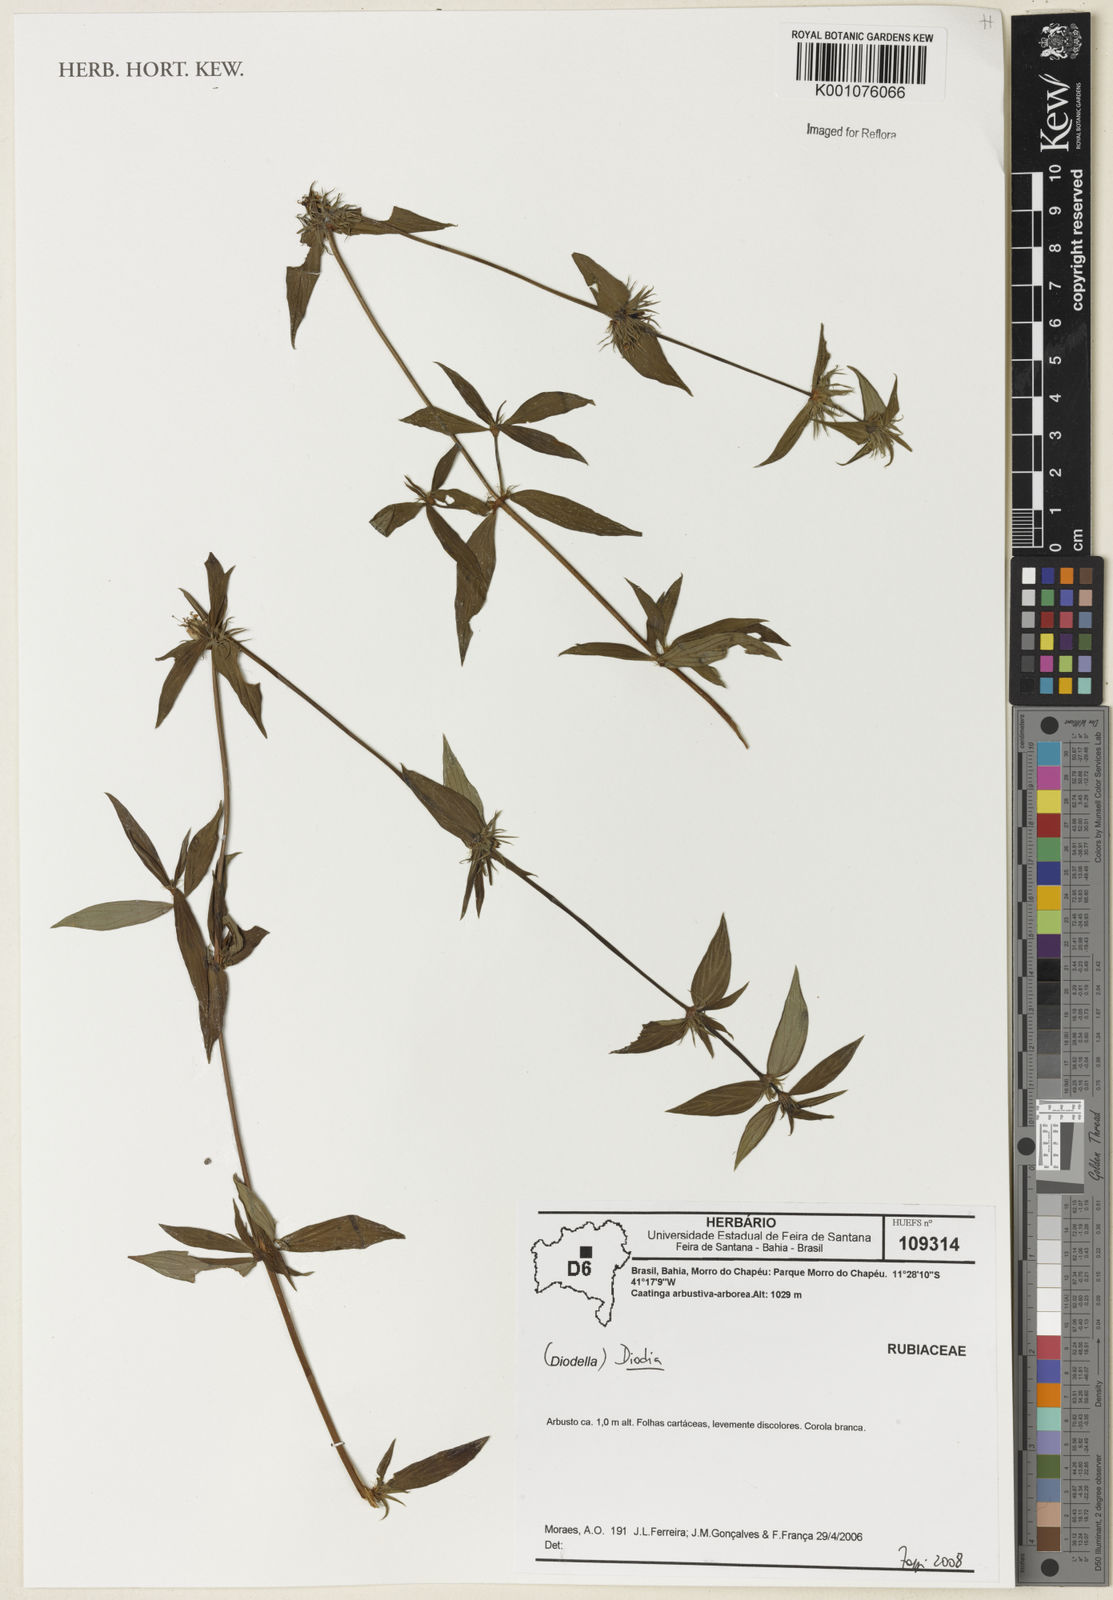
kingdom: Plantae
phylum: Tracheophyta
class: Magnoliopsida
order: Gentianales
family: Rubiaceae
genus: Diodia
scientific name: Diodia
